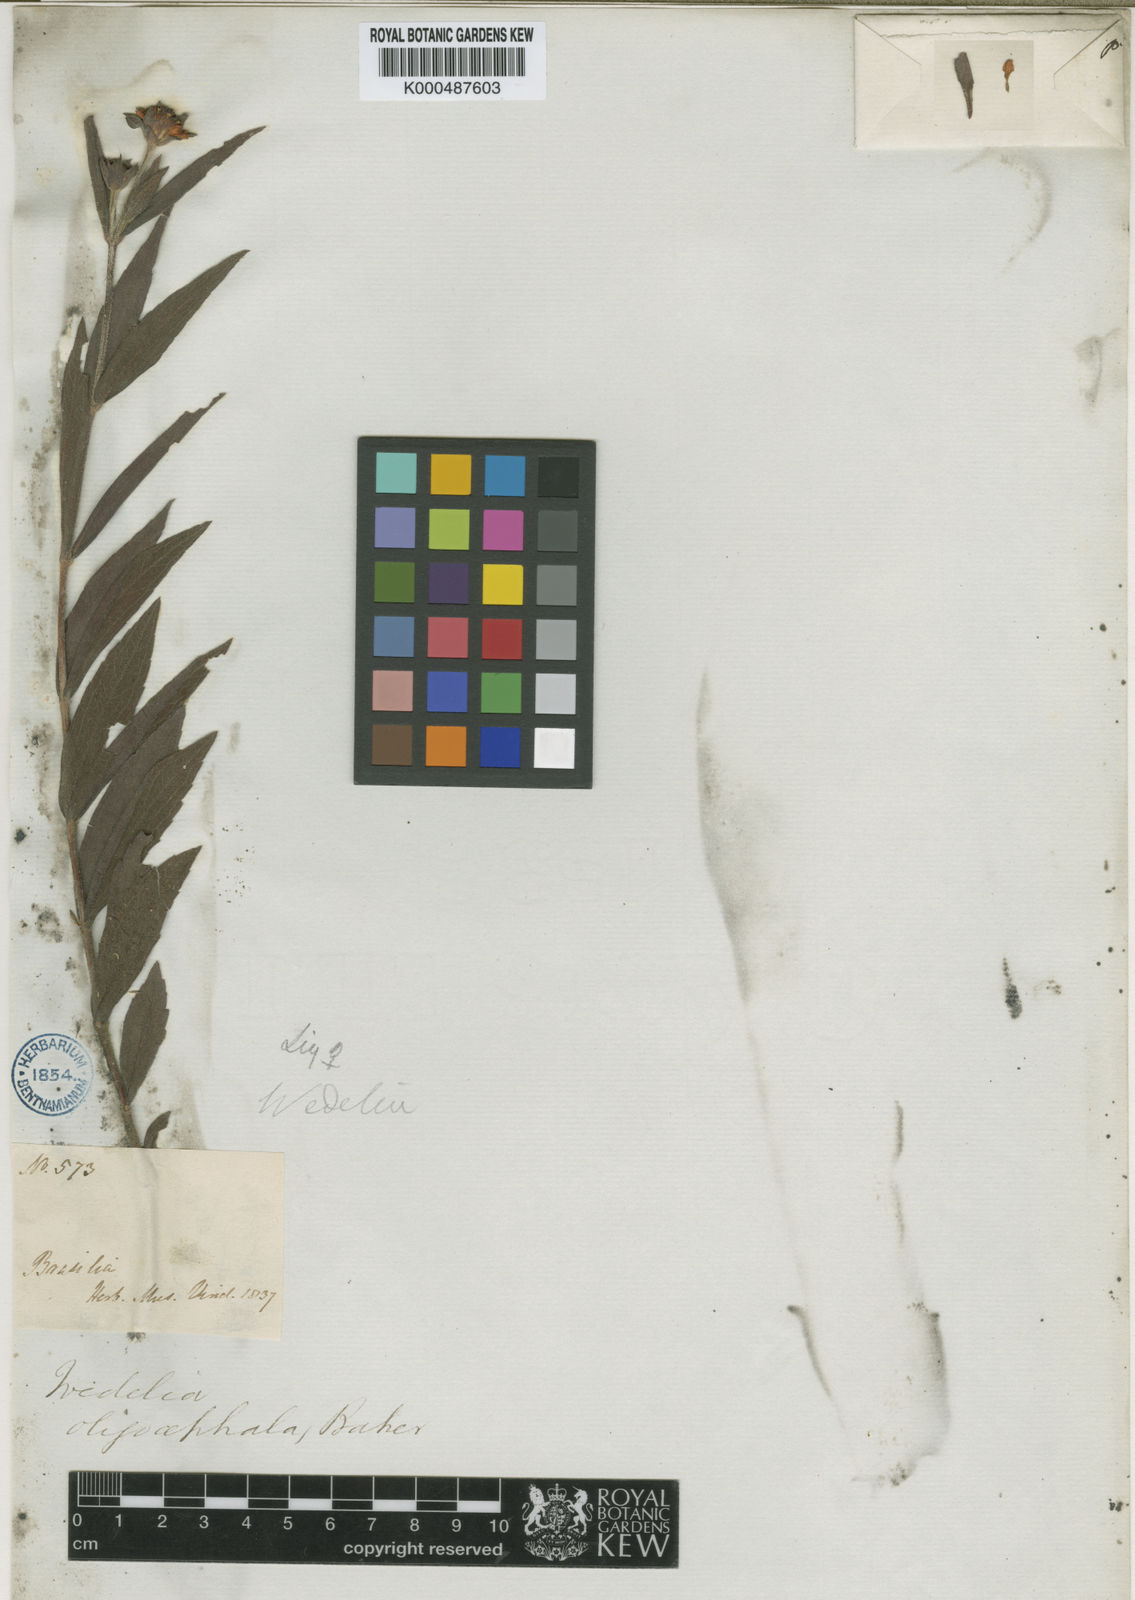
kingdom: Plantae
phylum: Tracheophyta
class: Magnoliopsida
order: Asterales
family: Asteraceae
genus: Wedelia
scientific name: Wedelia oligocephala
